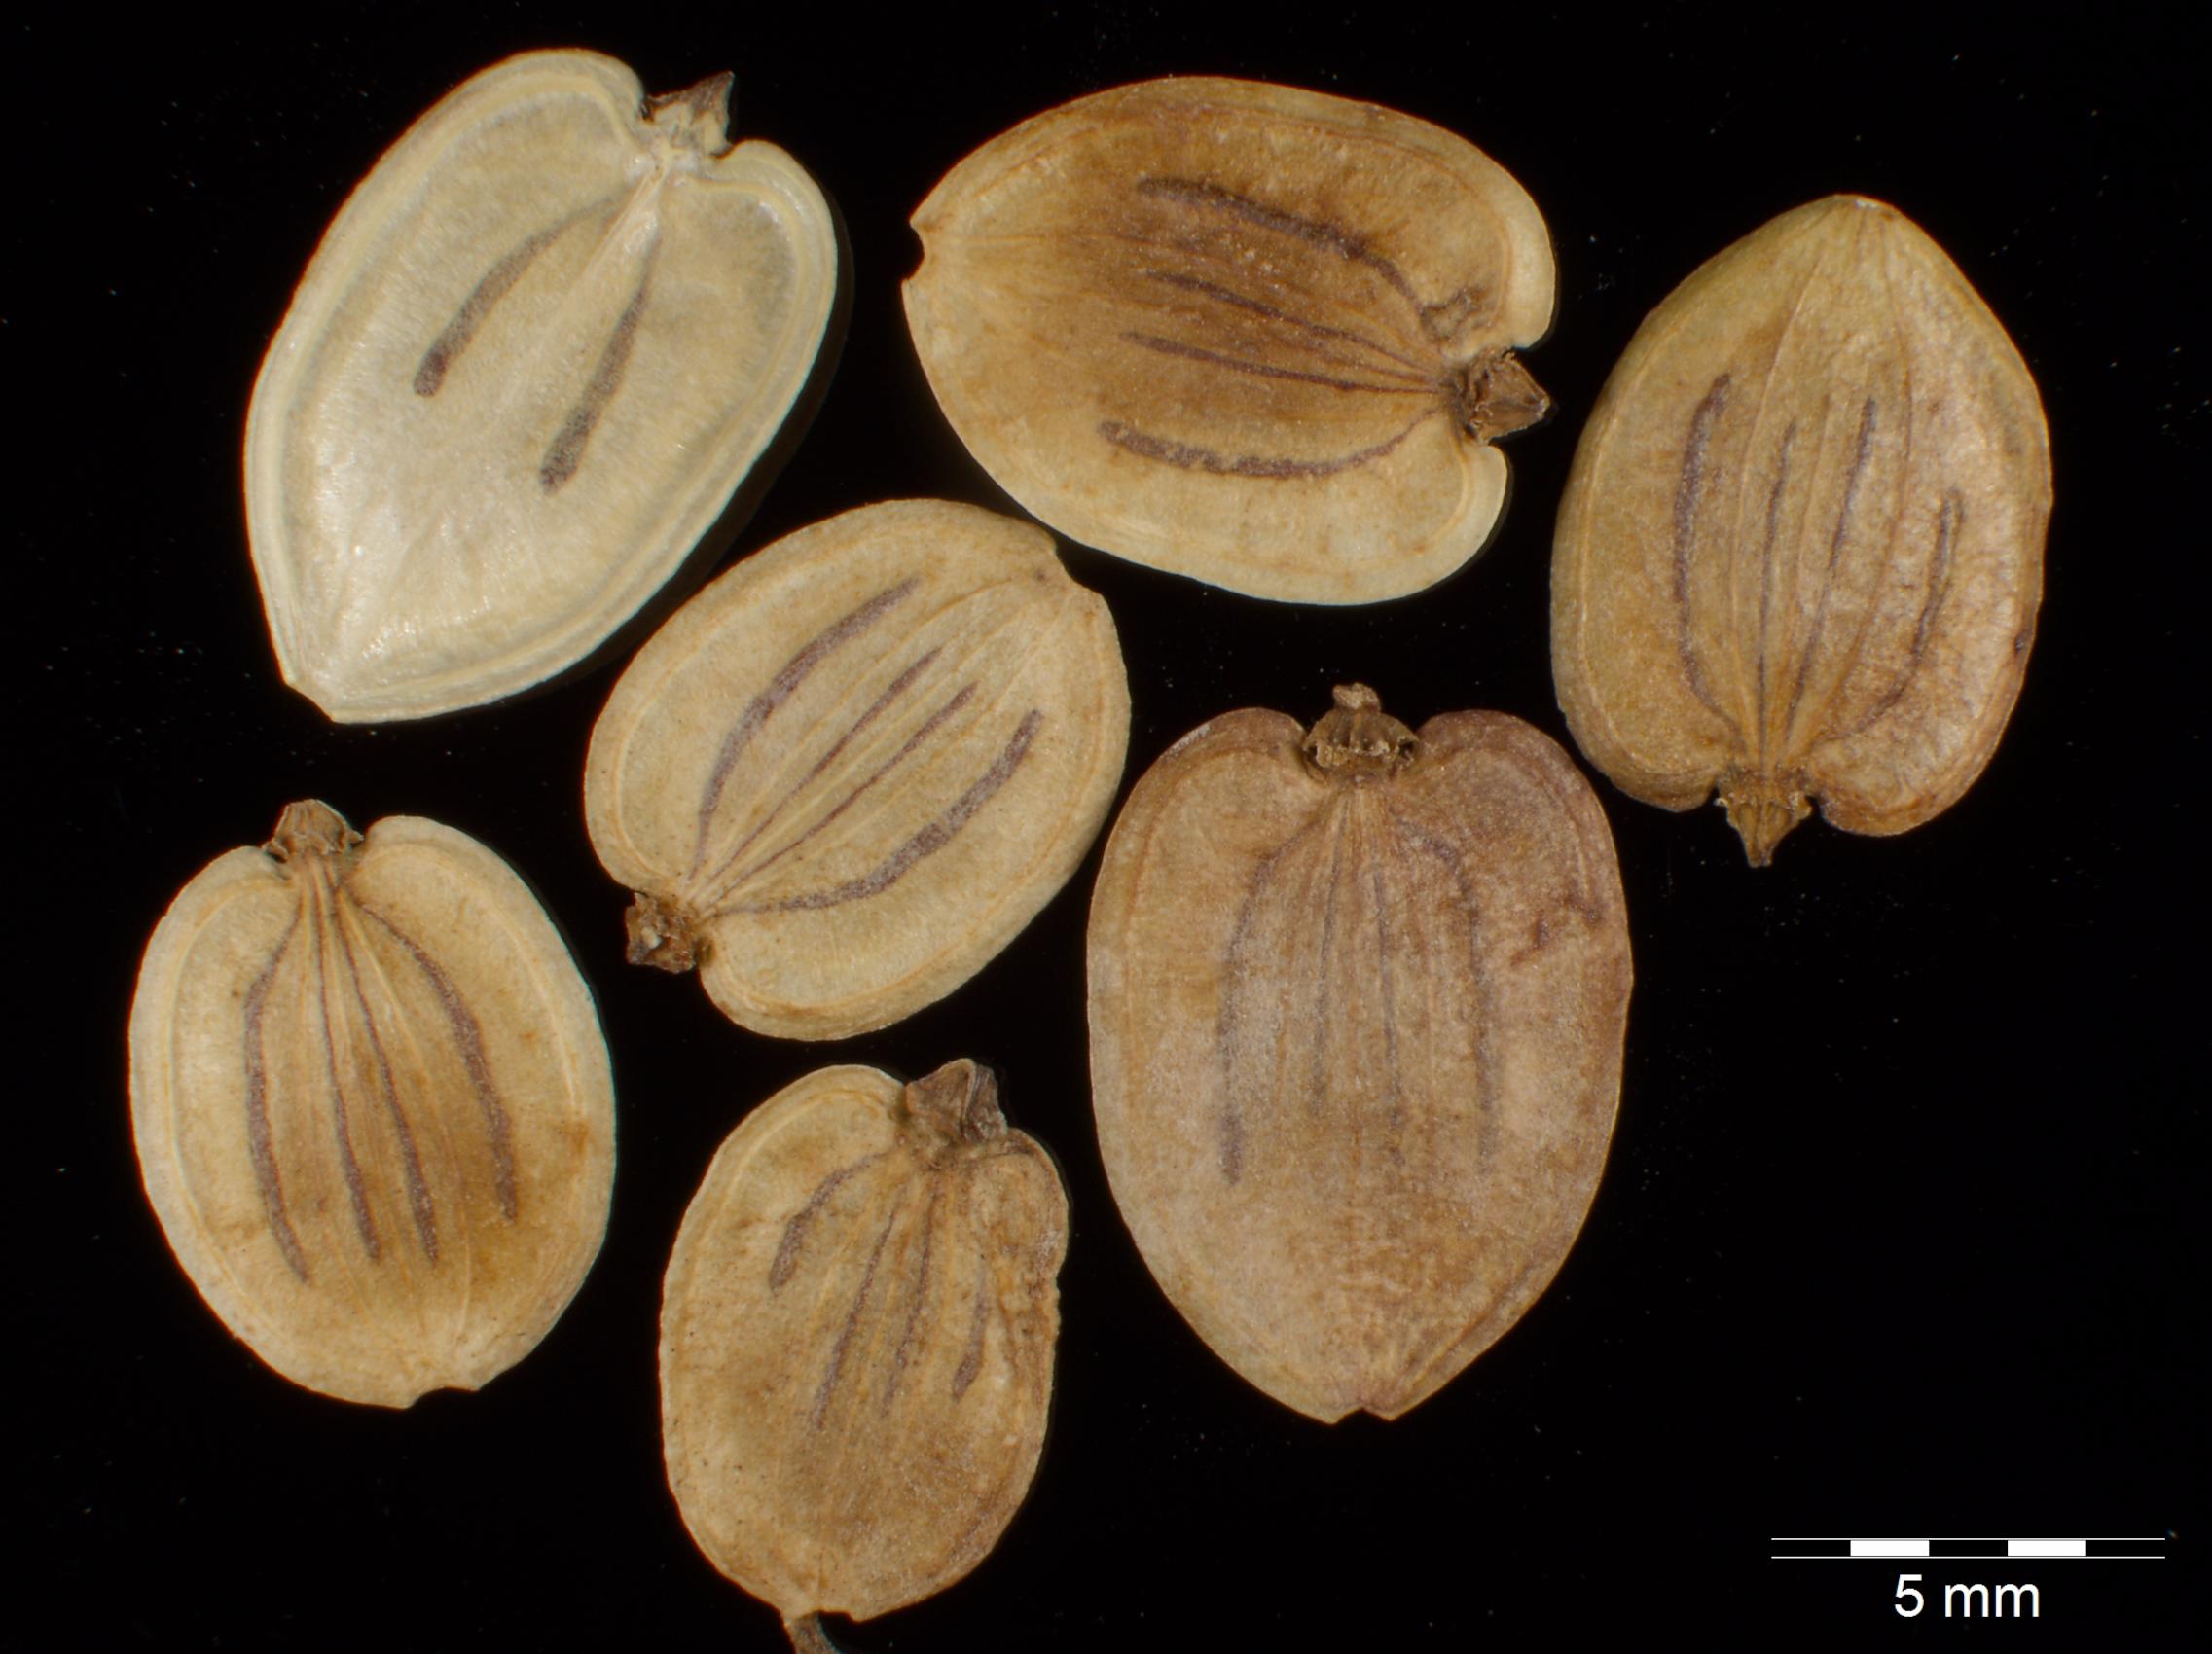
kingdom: Plantae
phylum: Tracheophyta
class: Magnoliopsida
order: Apiales
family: Apiaceae
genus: Heracleum
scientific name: Heracleum sphondylium
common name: Hogweed
